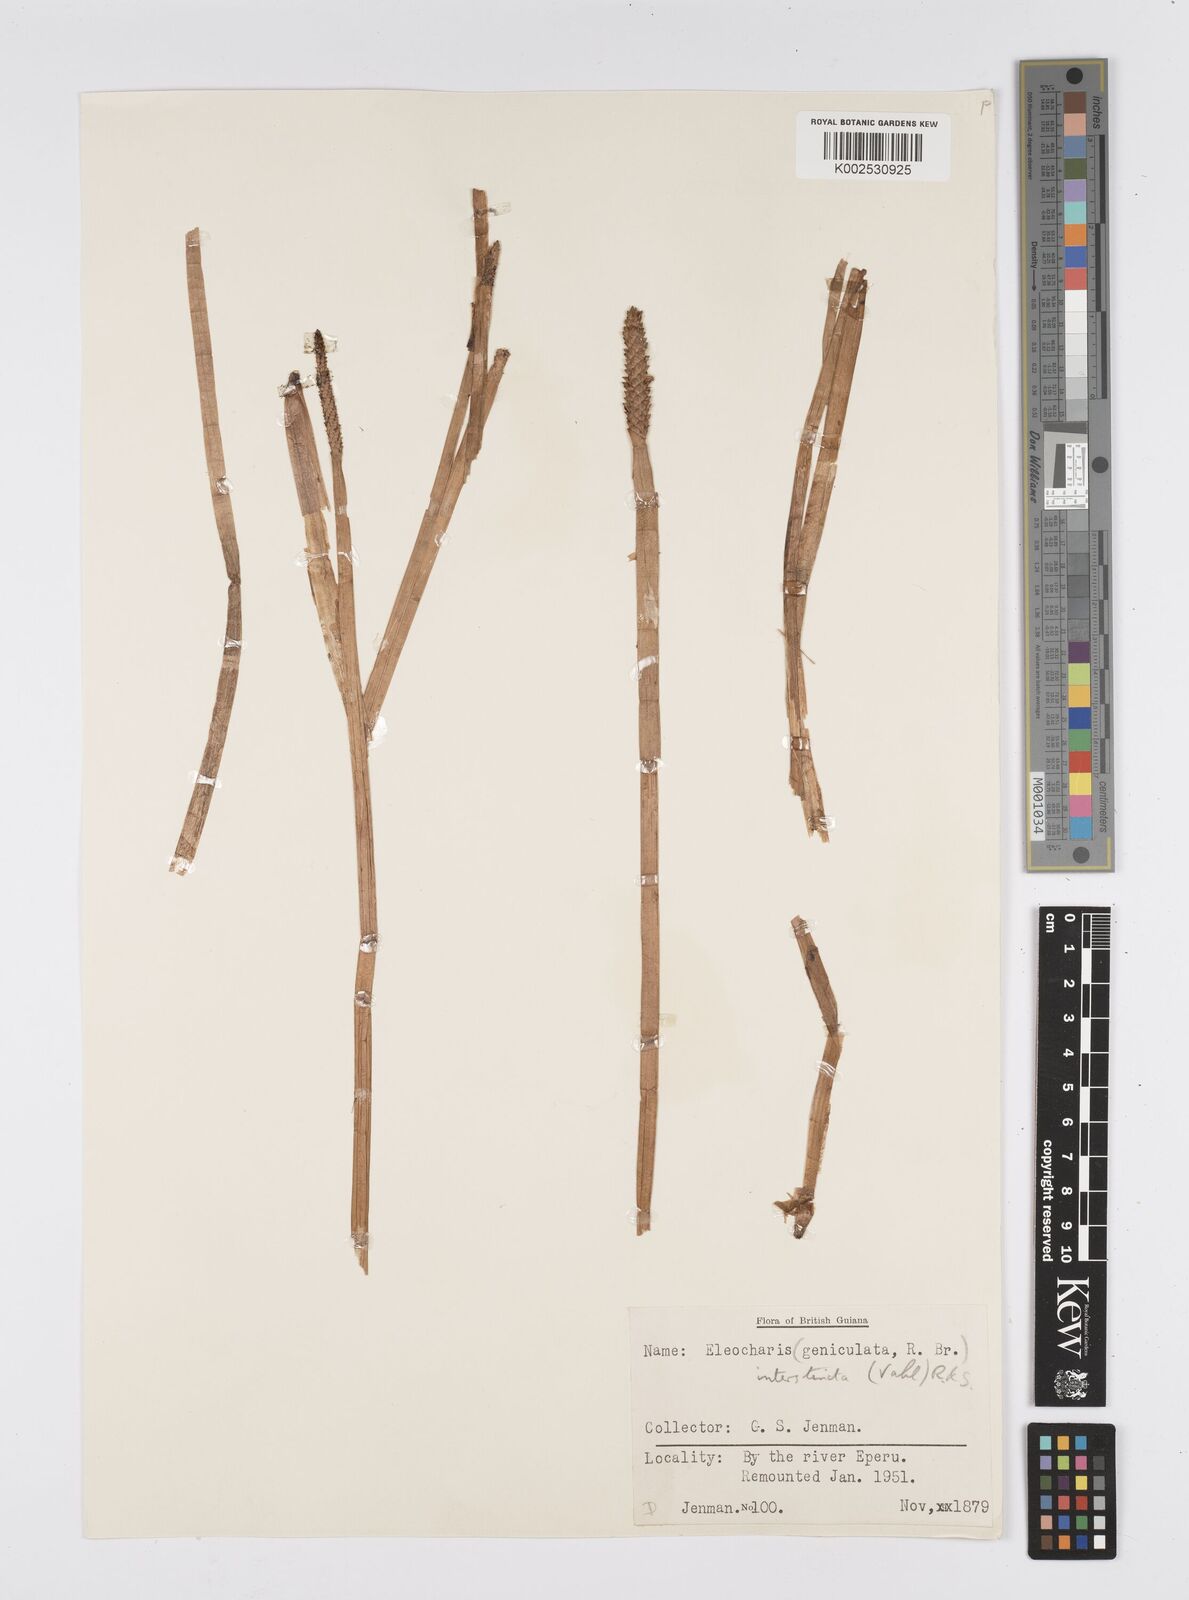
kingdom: Plantae
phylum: Tracheophyta
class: Liliopsida
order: Poales
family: Cyperaceae
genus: Eleocharis
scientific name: Eleocharis interstincta
